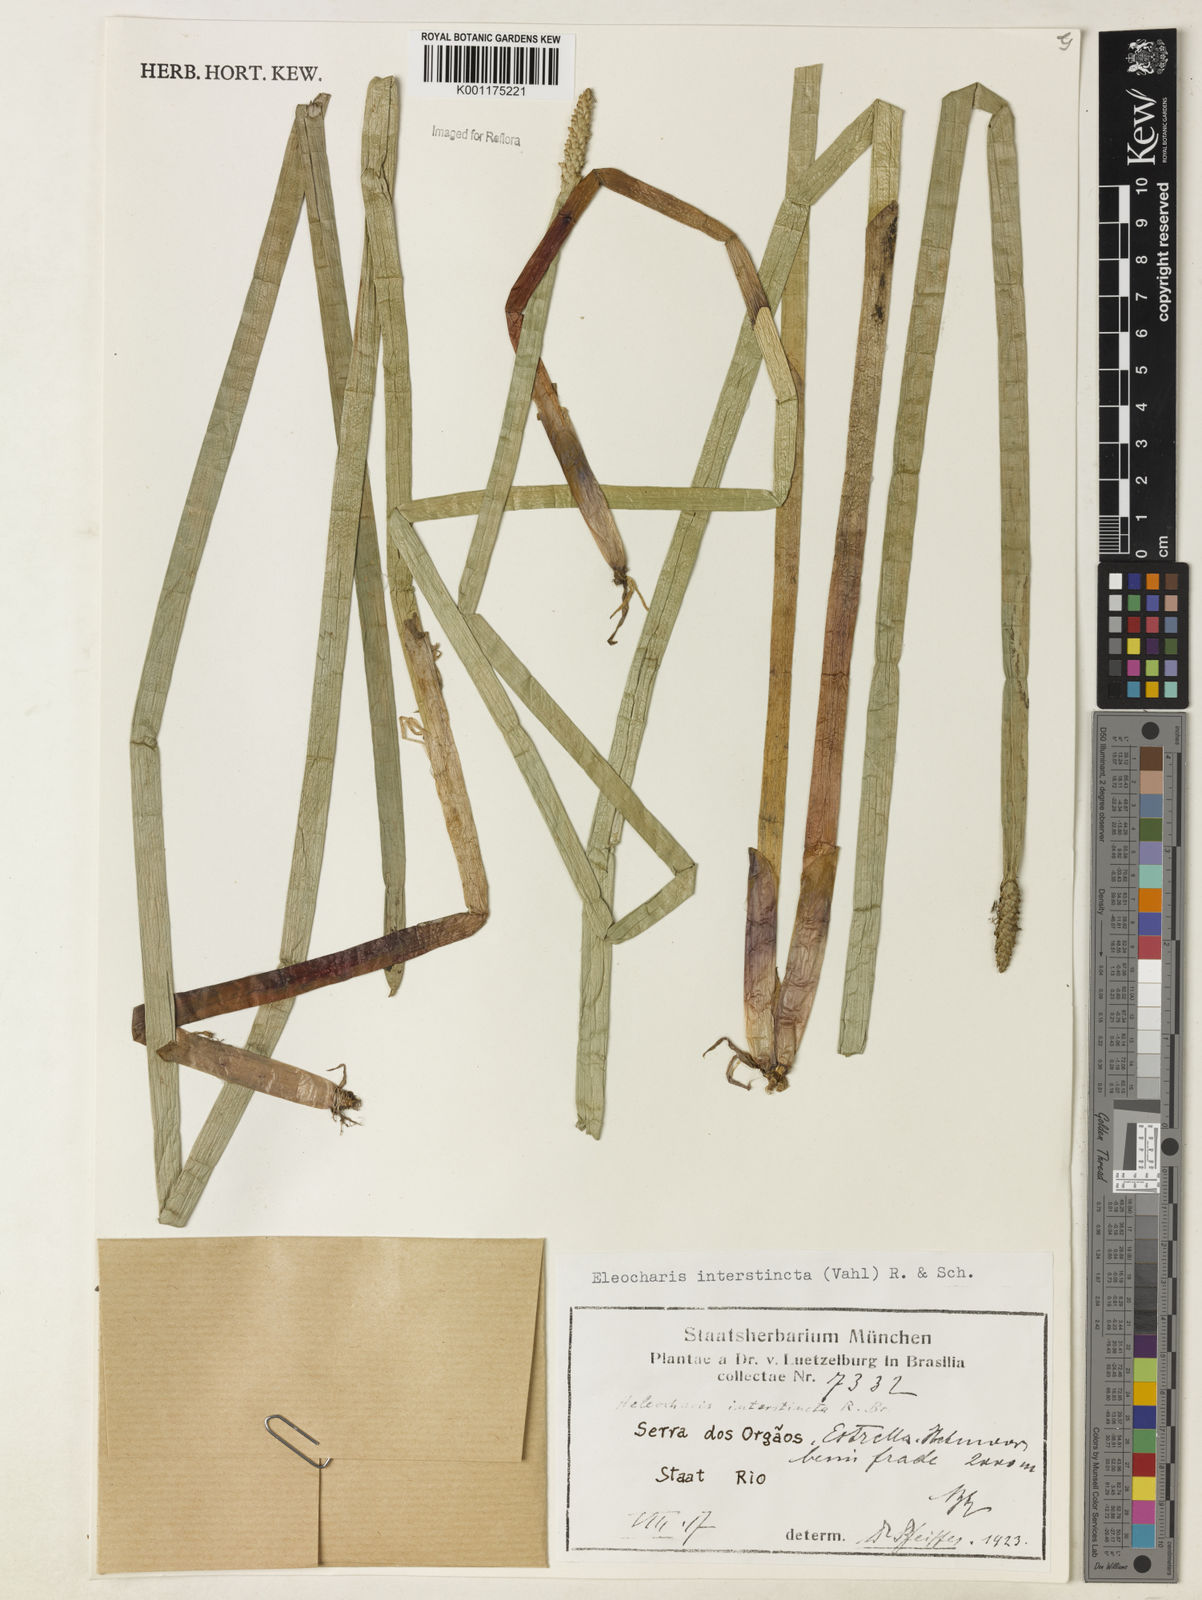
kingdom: Plantae
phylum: Tracheophyta
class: Liliopsida
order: Poales
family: Cyperaceae
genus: Eleocharis
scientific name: Eleocharis interstincta
